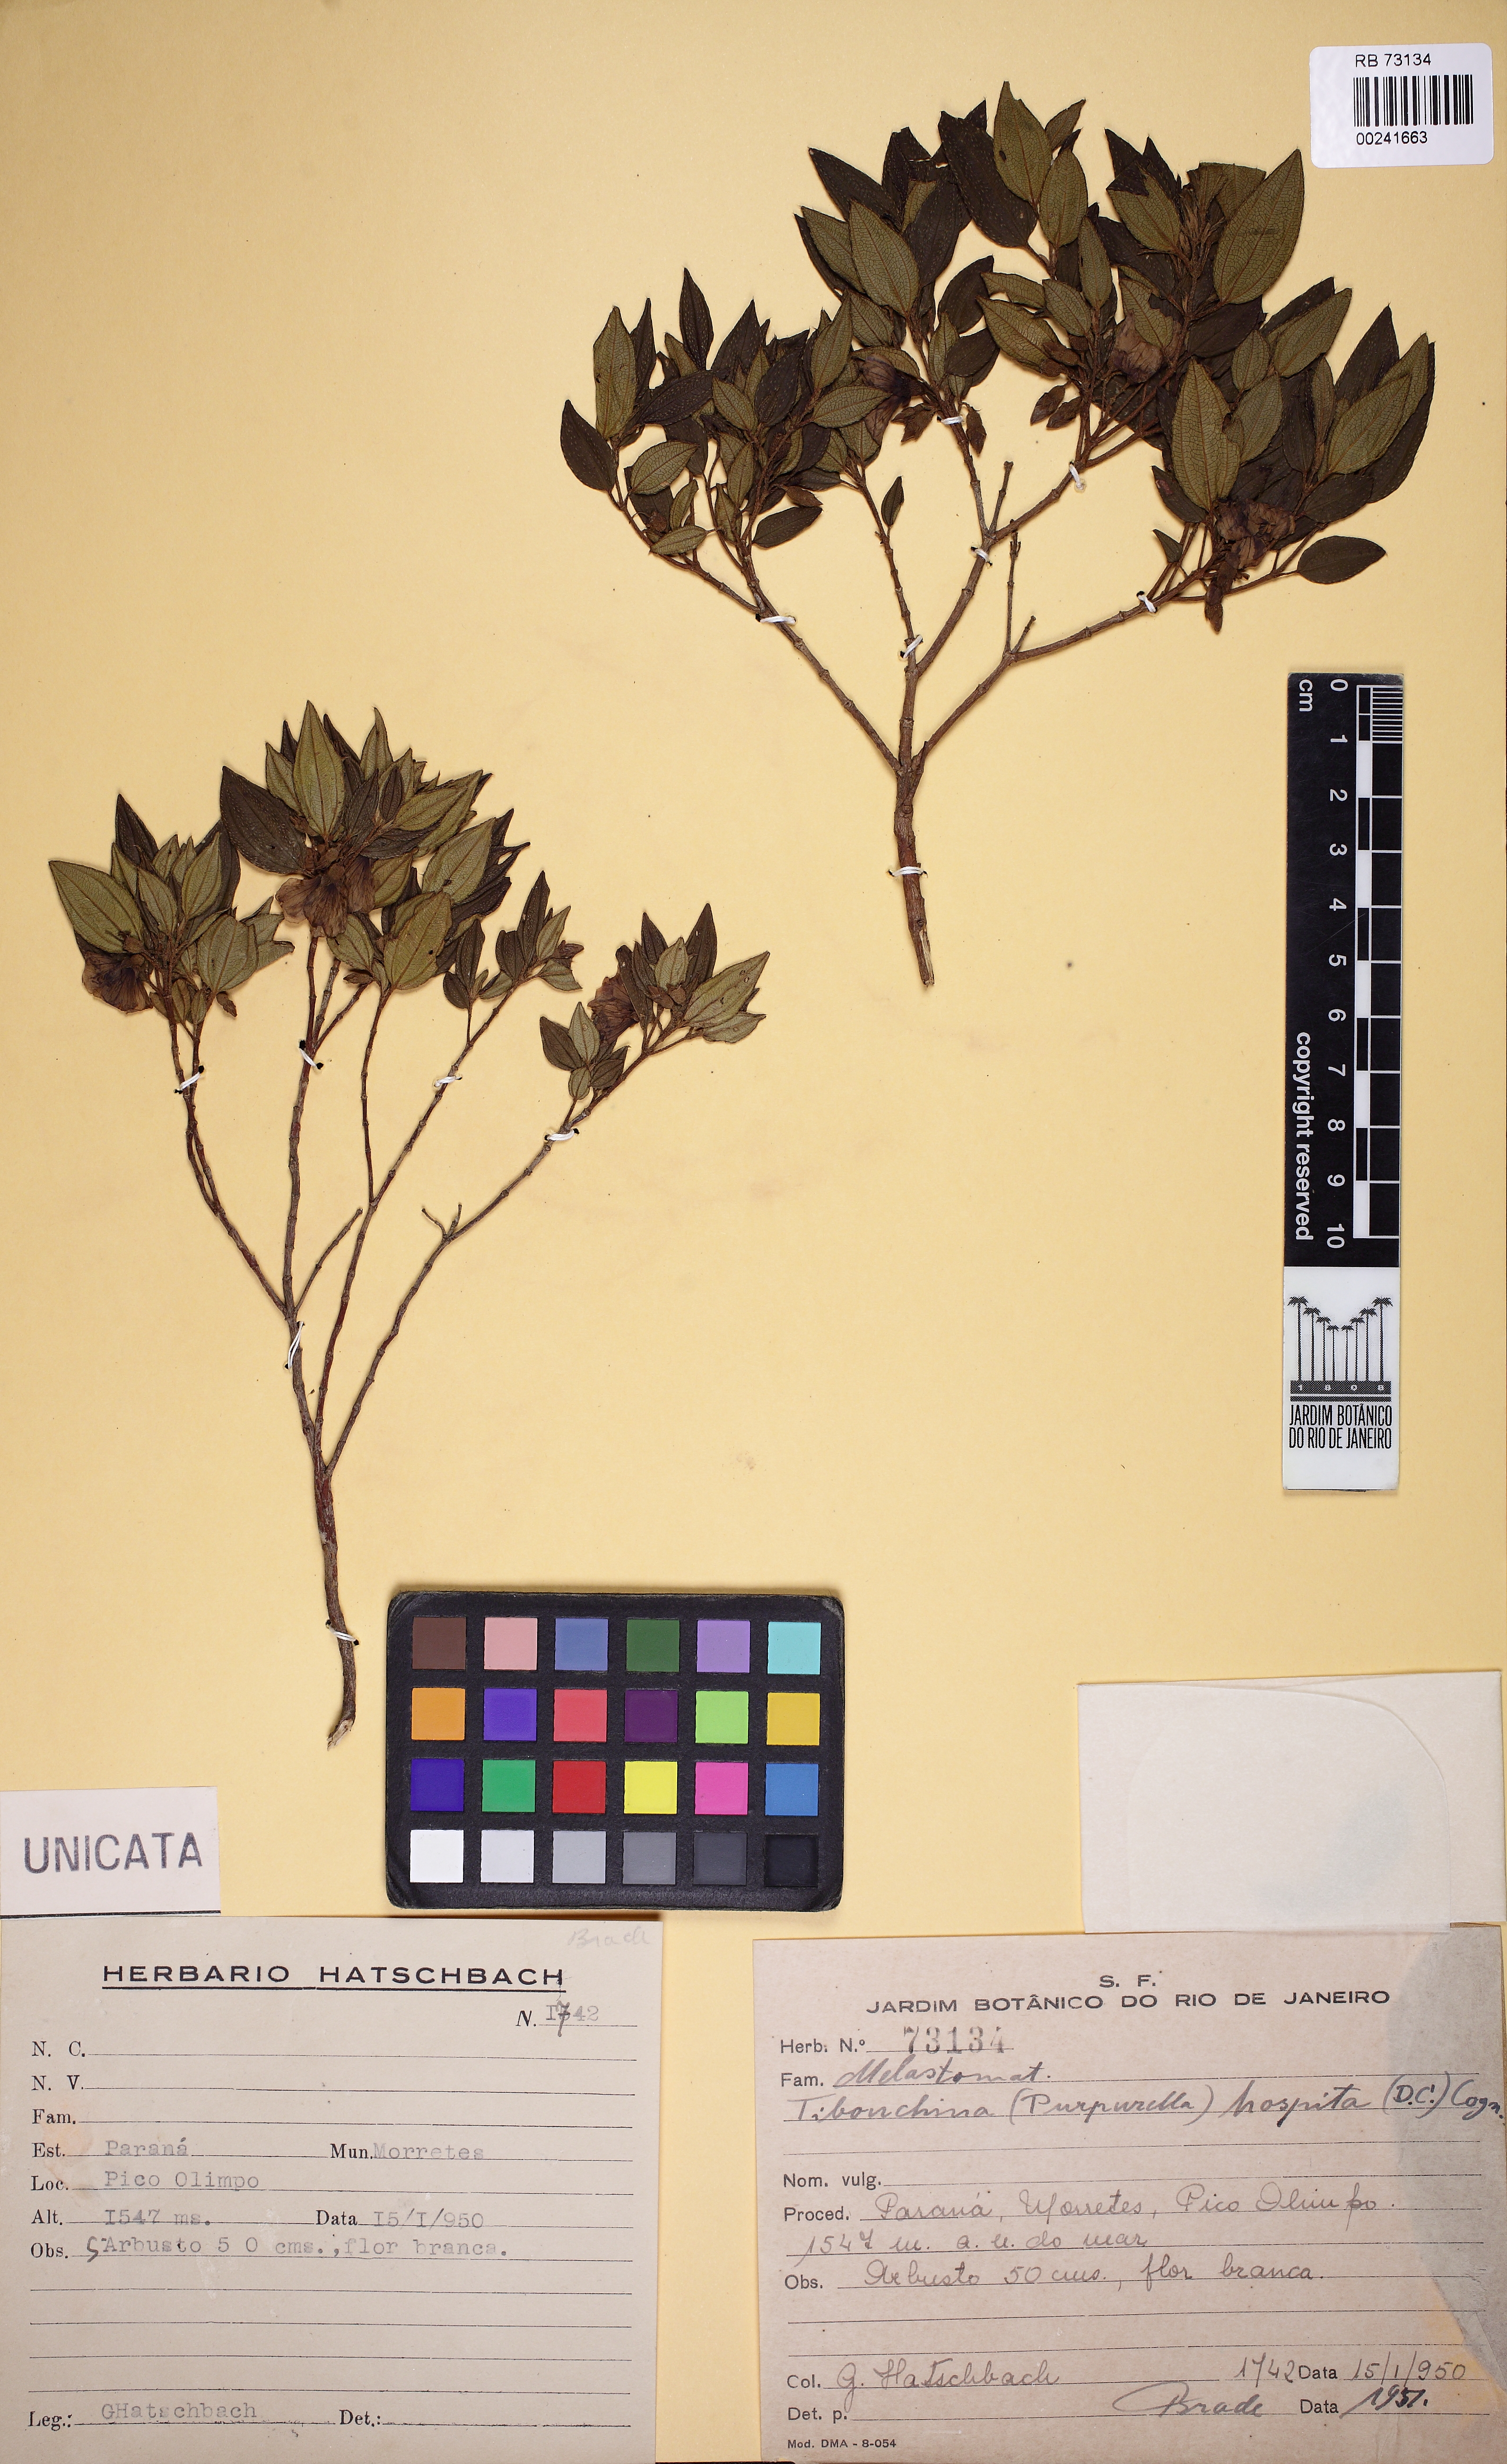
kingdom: Plantae
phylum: Tracheophyta
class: Magnoliopsida
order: Myrtales
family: Melastomataceae
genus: Pleroma
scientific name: Pleroma hospitum
